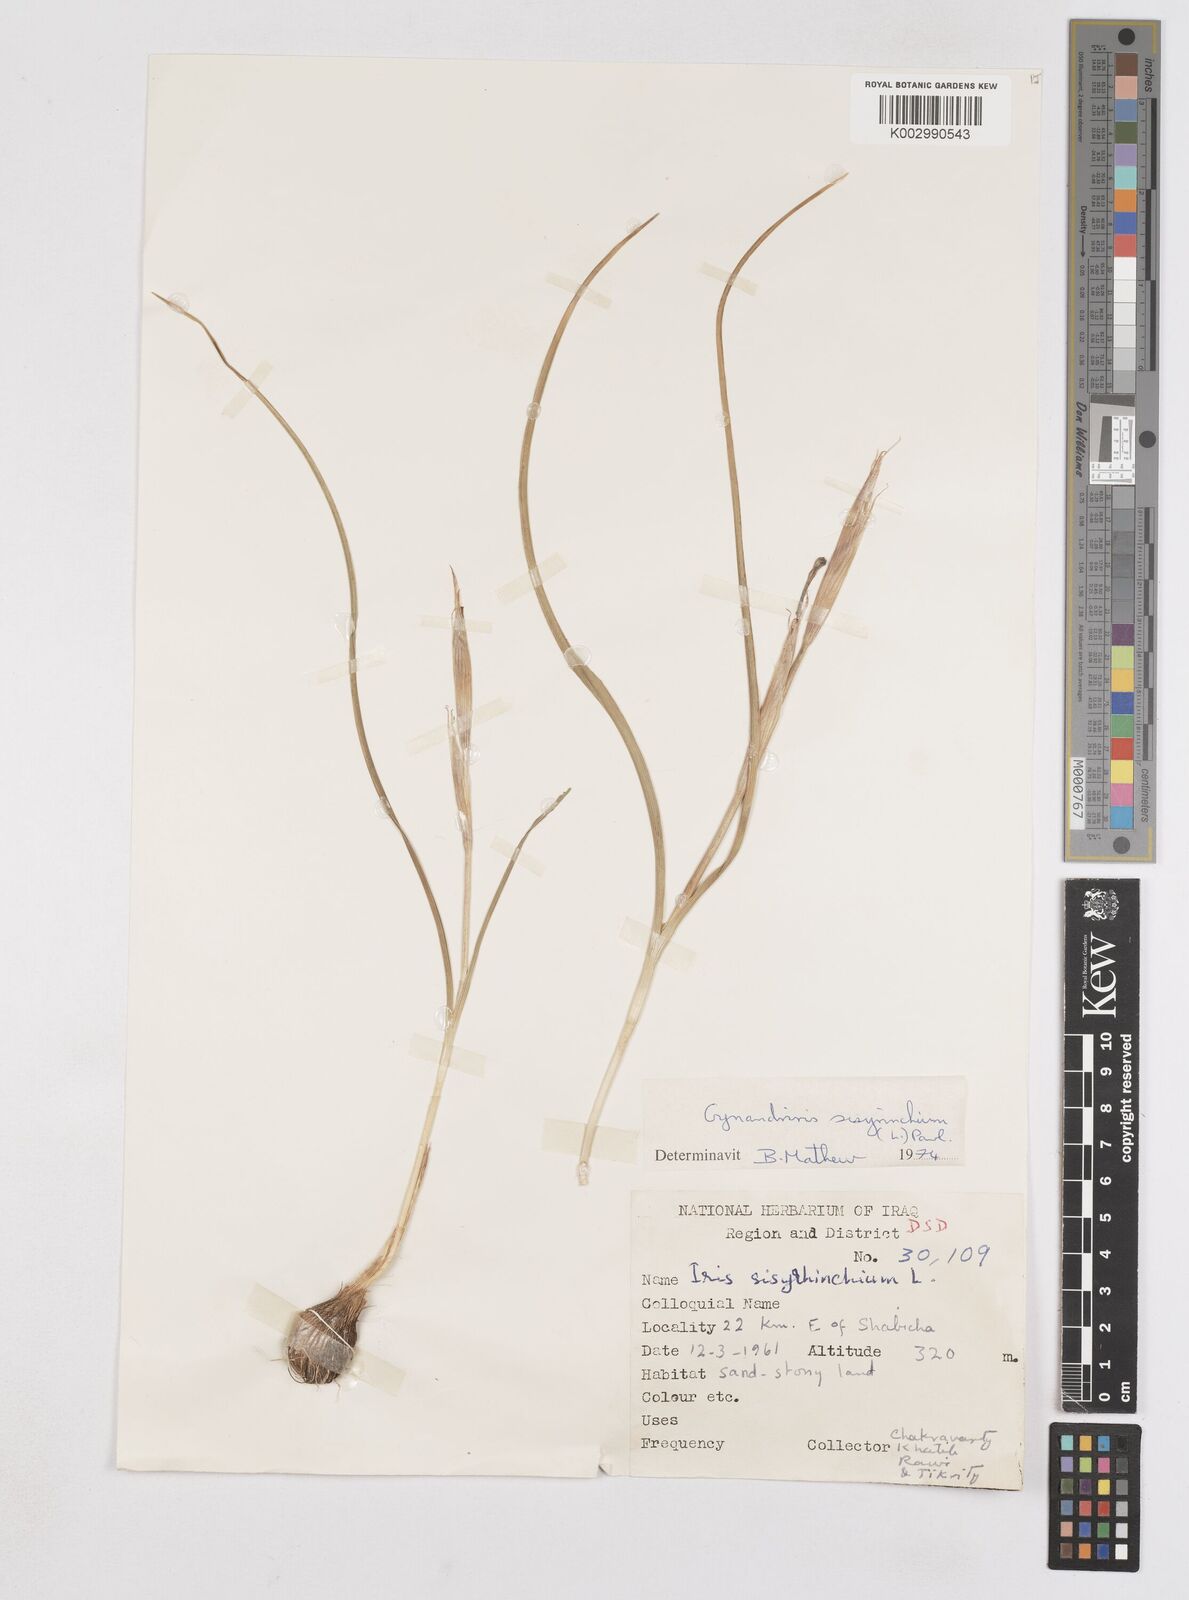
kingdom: Plantae
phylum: Tracheophyta
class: Liliopsida
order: Asparagales
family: Iridaceae
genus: Moraea
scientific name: Moraea sisyrinchium
